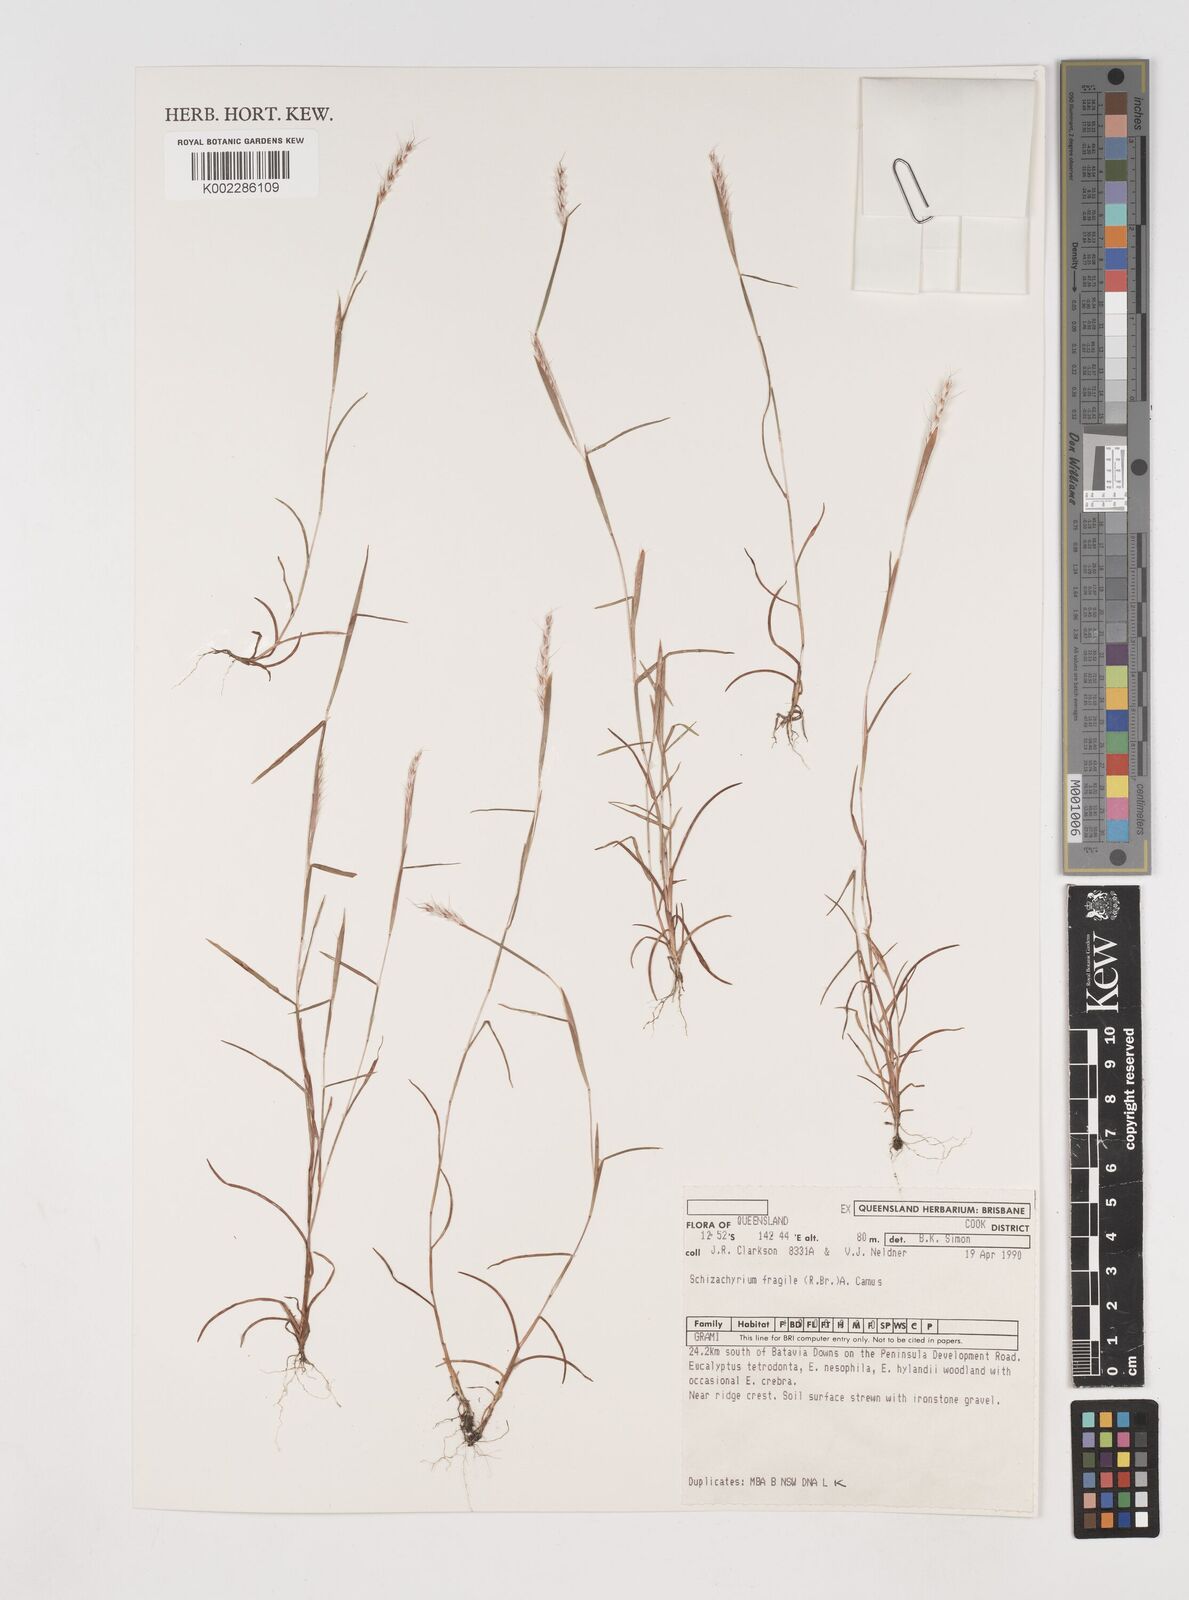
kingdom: Plantae
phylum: Tracheophyta
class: Liliopsida
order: Poales
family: Poaceae
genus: Schizachyrium
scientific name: Schizachyrium fragile
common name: Red spathe grass
